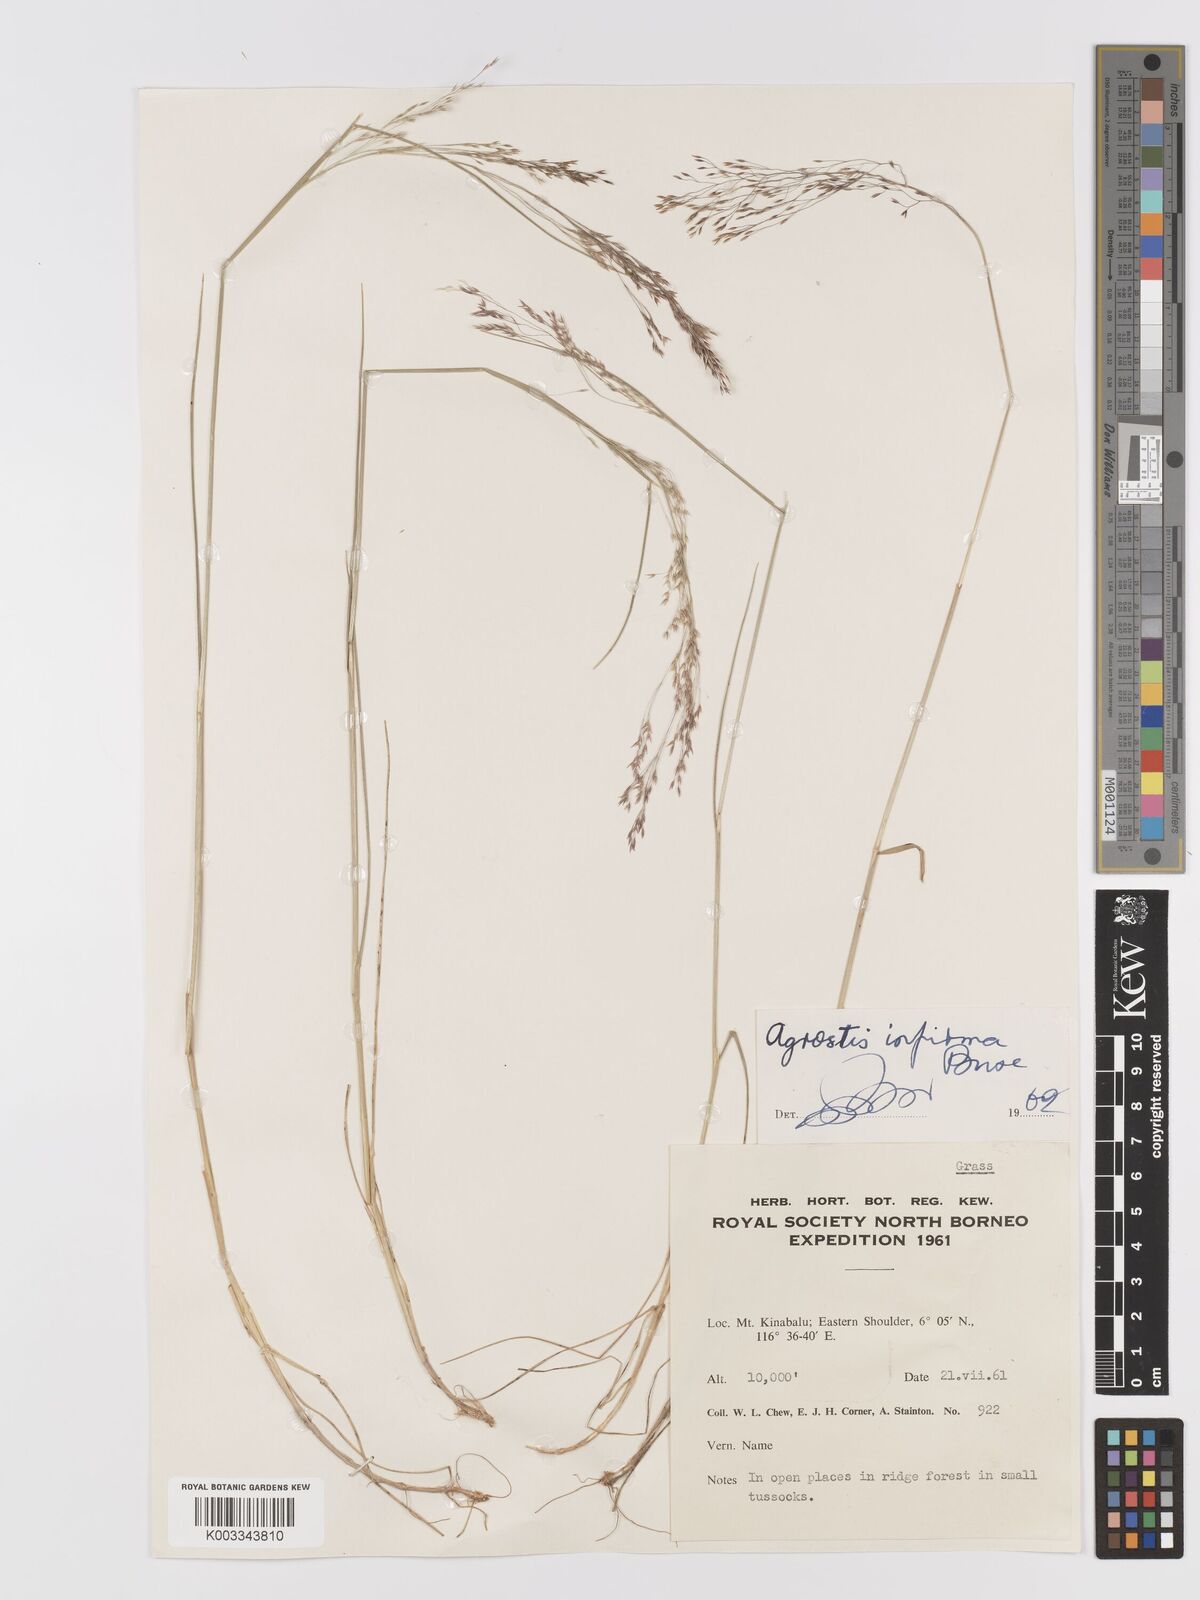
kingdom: Plantae
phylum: Tracheophyta
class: Liliopsida
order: Poales
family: Poaceae
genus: Agrostis
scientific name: Agrostis infirma
